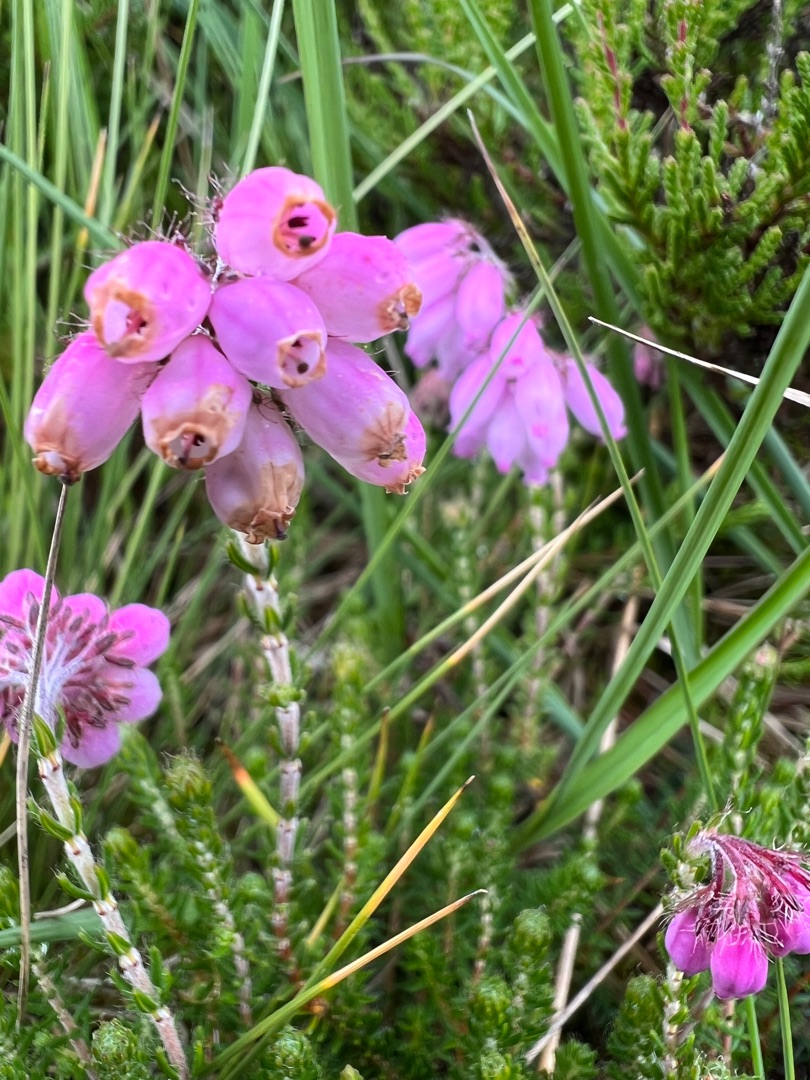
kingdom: Plantae
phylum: Tracheophyta
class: Magnoliopsida
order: Ericales
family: Ericaceae
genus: Erica
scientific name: Erica tetralix
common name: Klokkelyng
